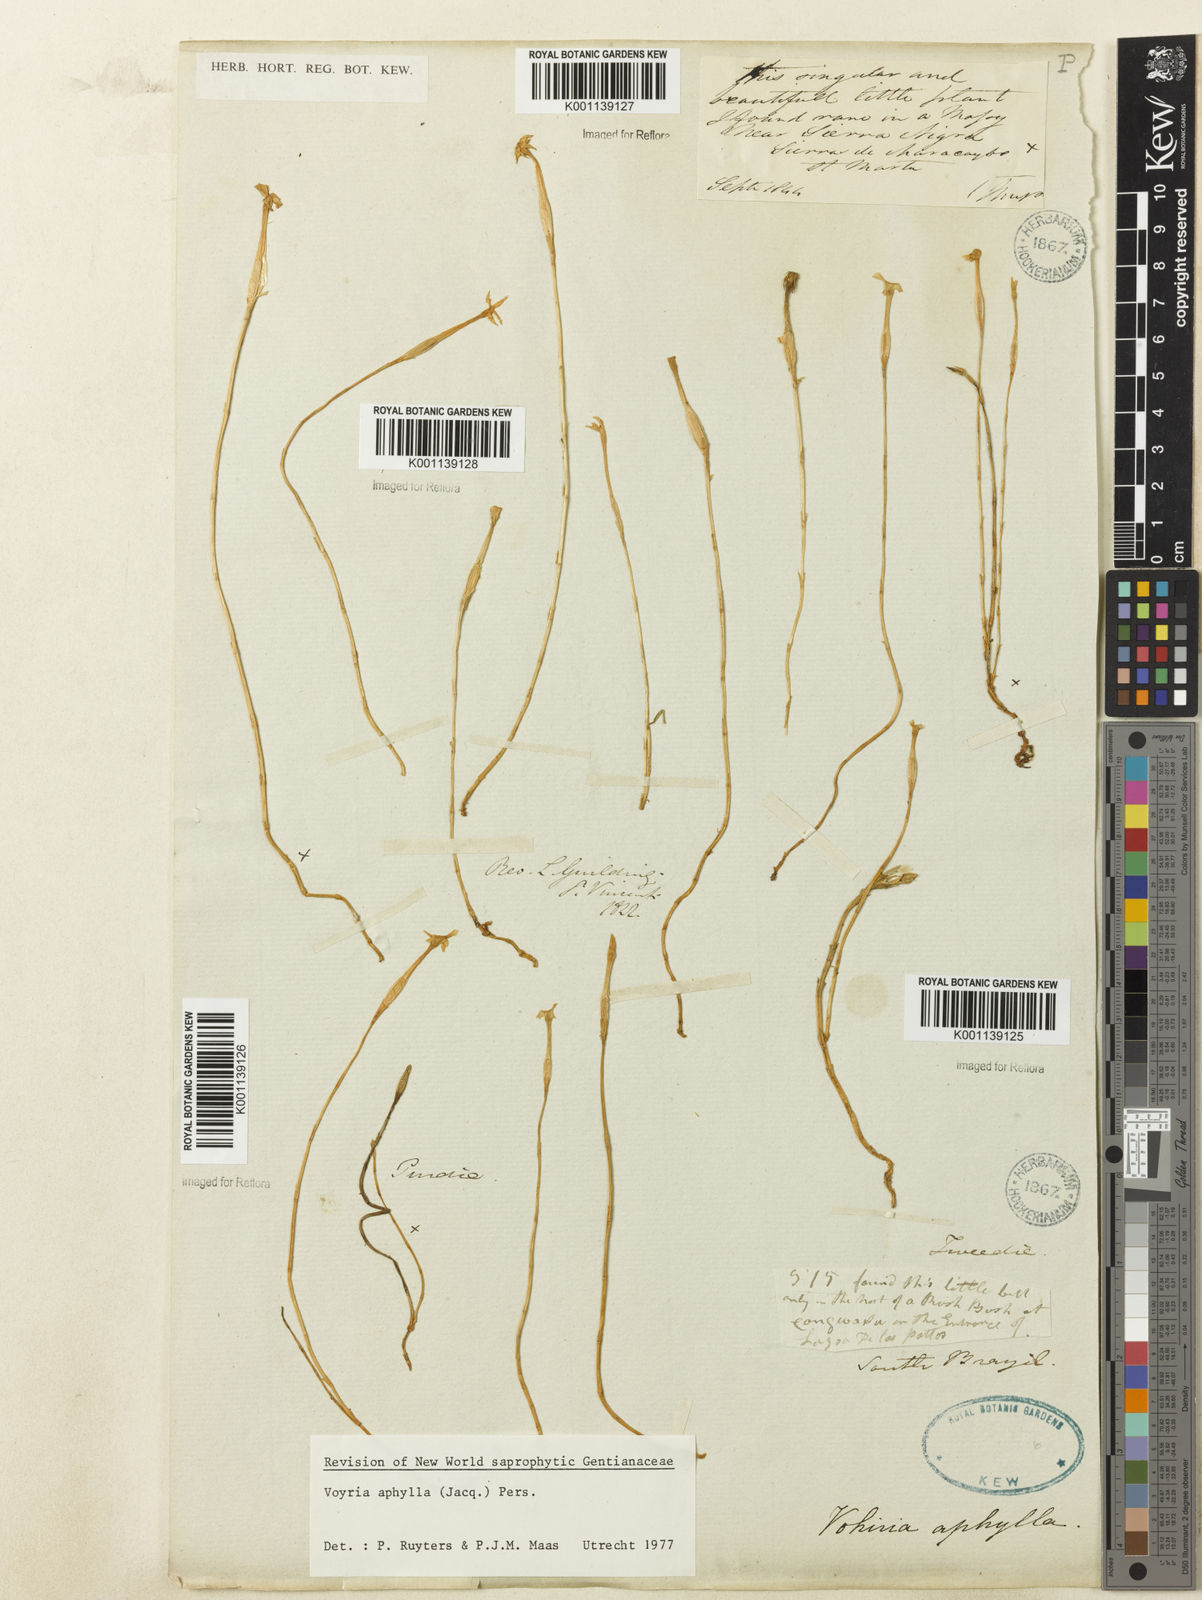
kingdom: Plantae
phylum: Tracheophyta
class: Magnoliopsida
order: Gentianales
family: Gentianaceae
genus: Voyria
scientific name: Voyria aphylla
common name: Leafless ghost plant
